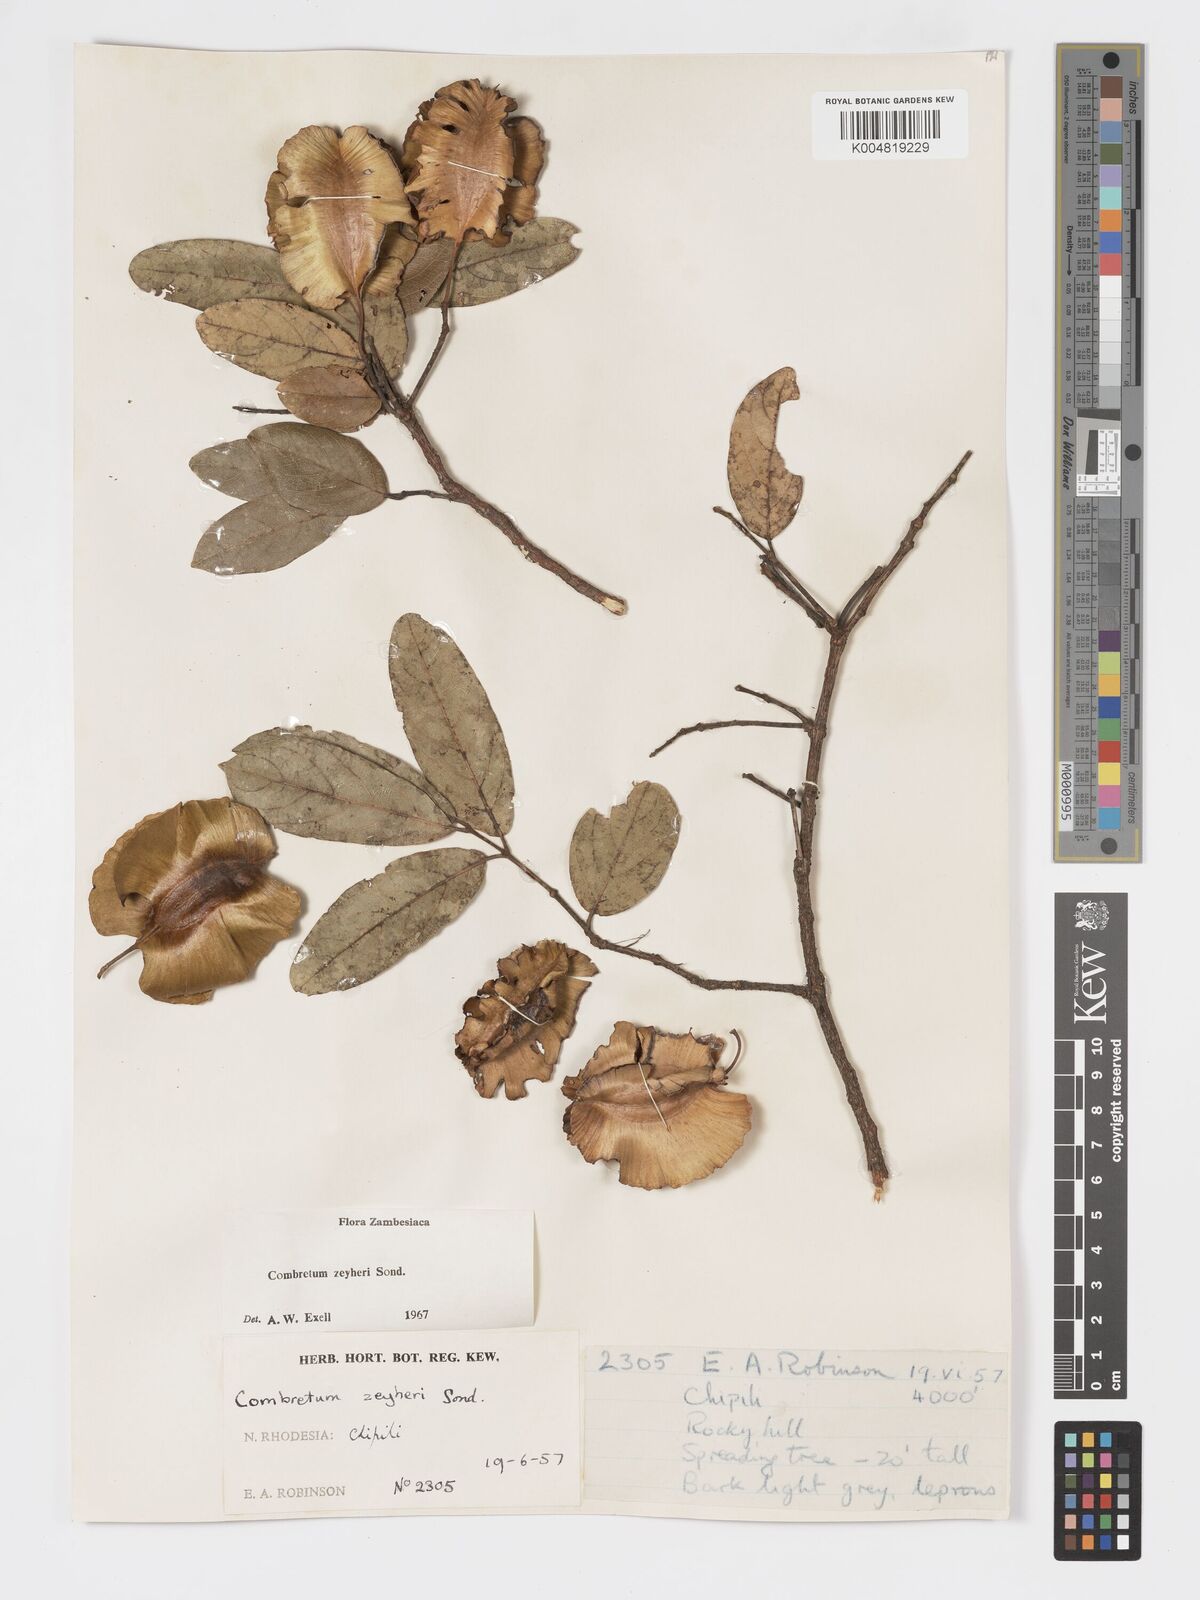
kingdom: Plantae
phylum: Tracheophyta
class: Magnoliopsida
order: Myrtales
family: Combretaceae
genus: Combretum
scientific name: Combretum zeyheri
